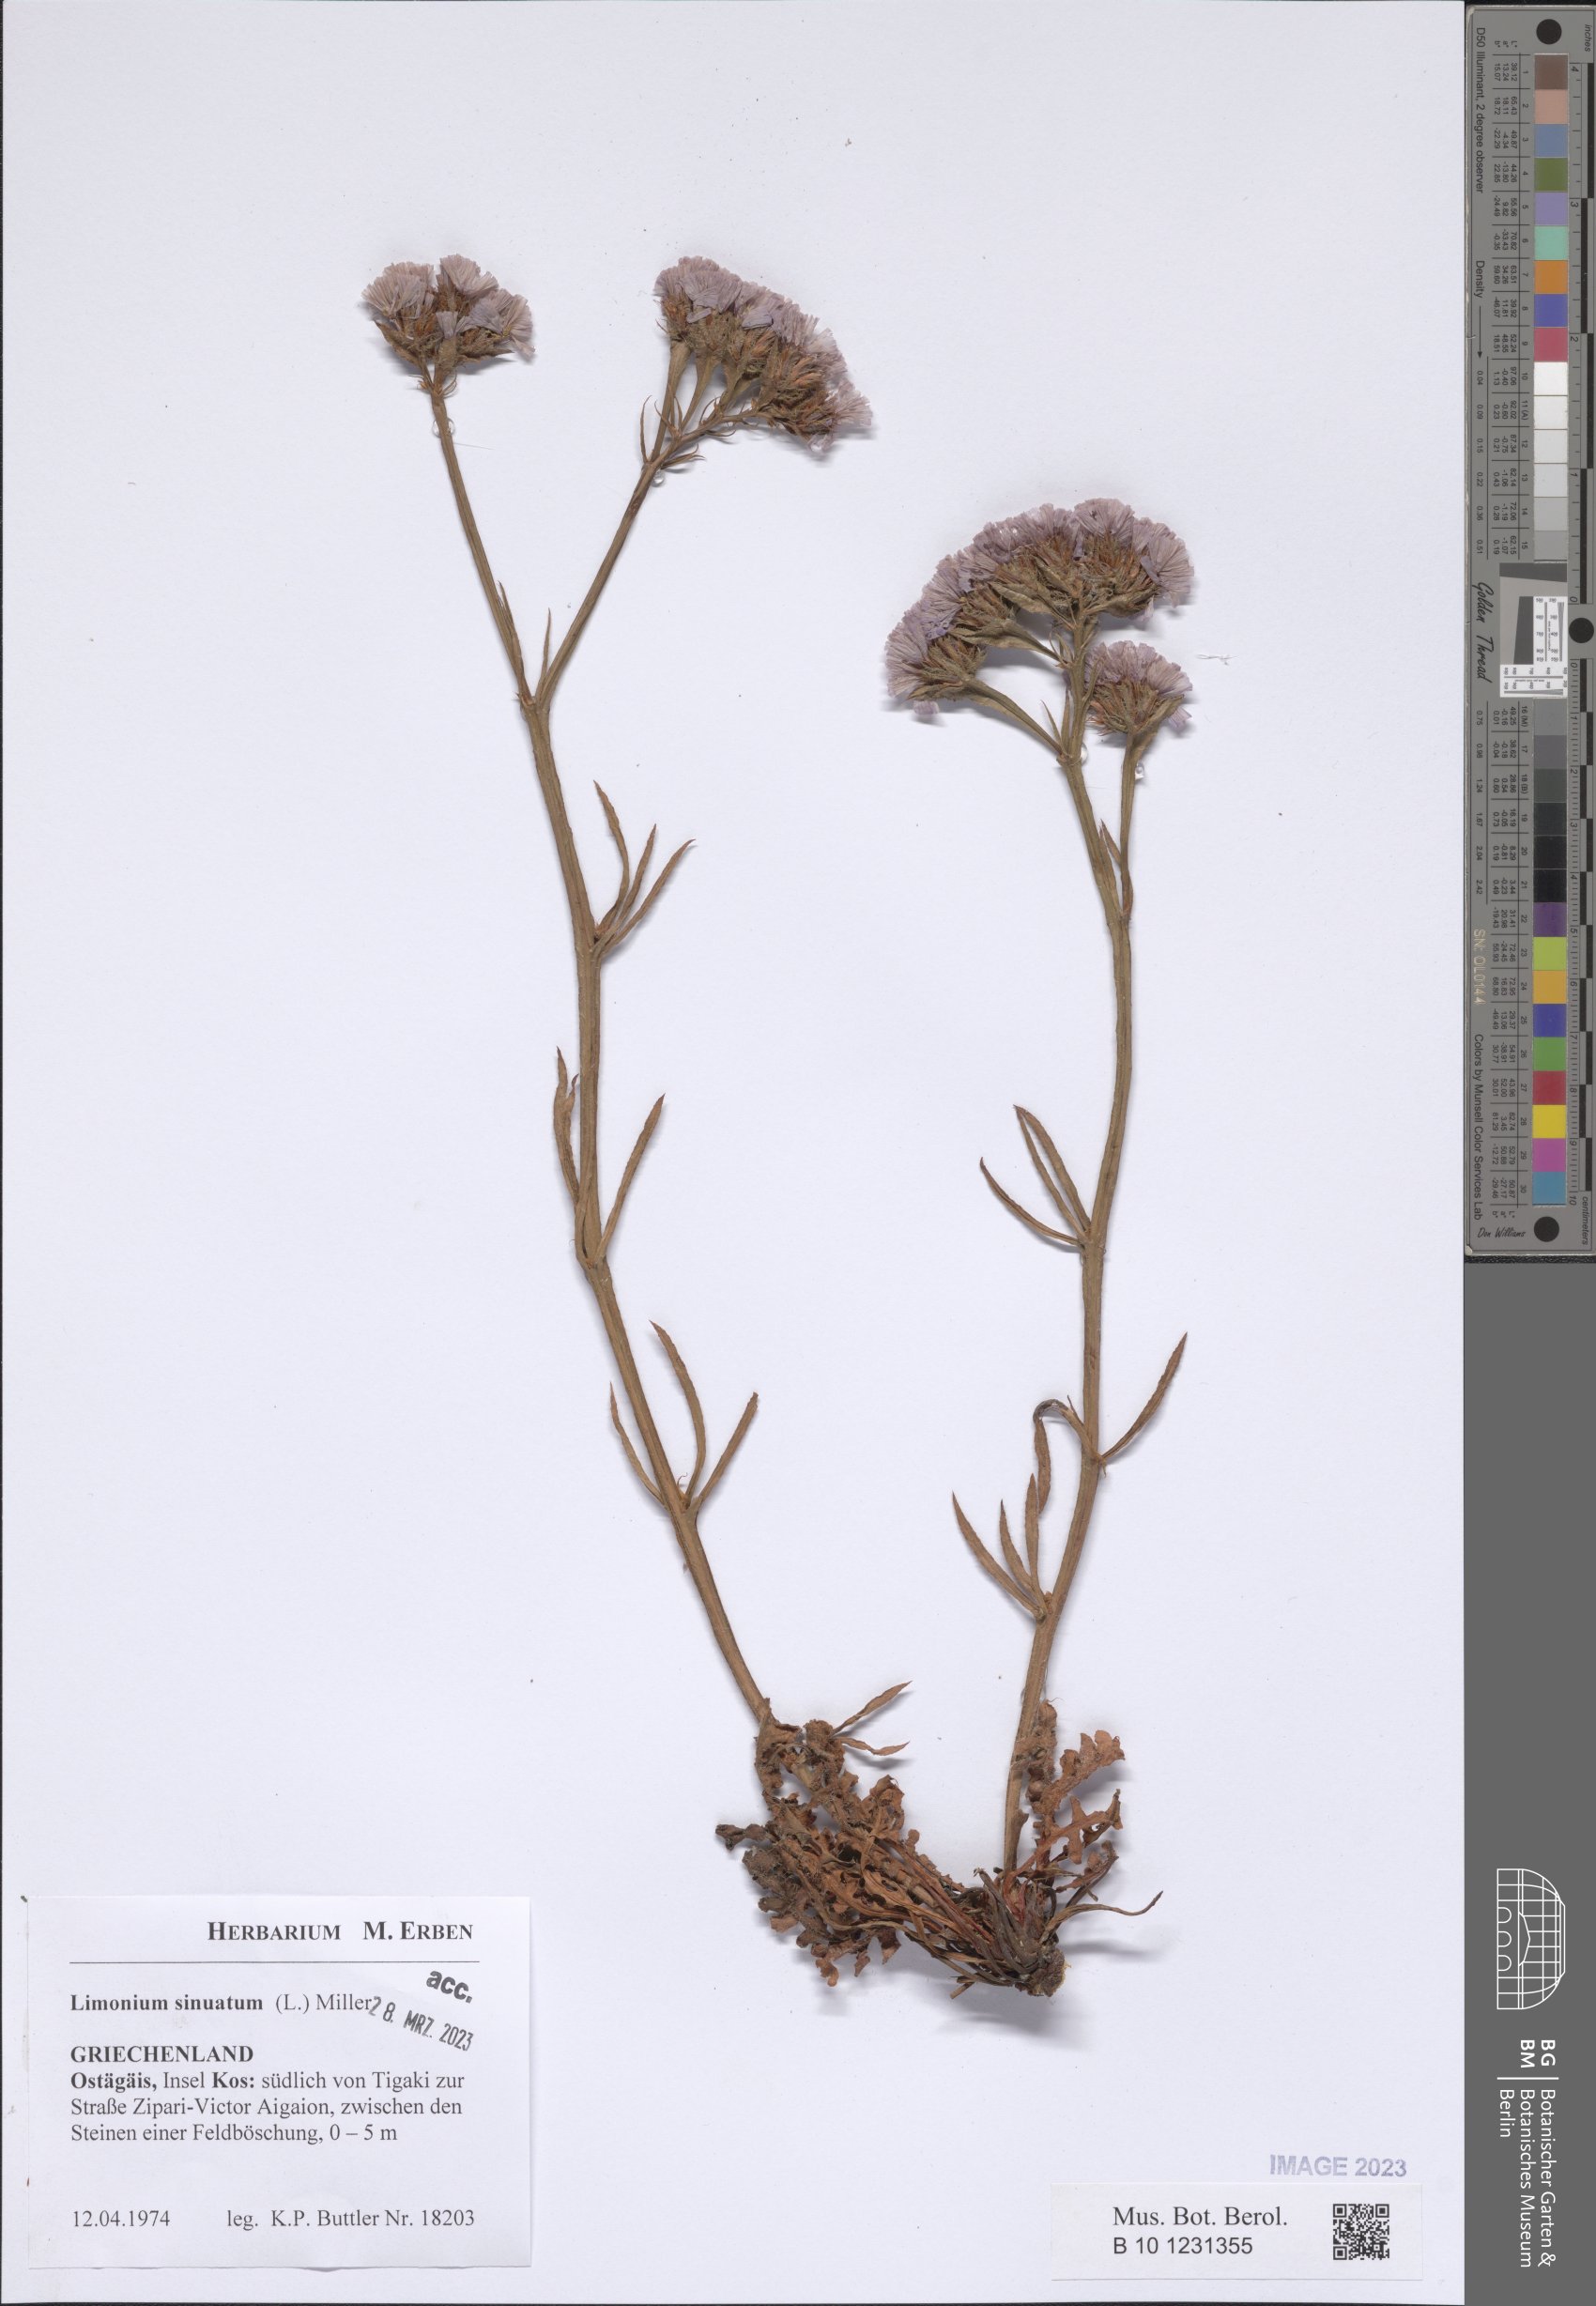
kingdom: Plantae
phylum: Tracheophyta
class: Magnoliopsida
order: Caryophyllales
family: Plumbaginaceae
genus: Limonium
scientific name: Limonium sinuatum
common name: Statice
